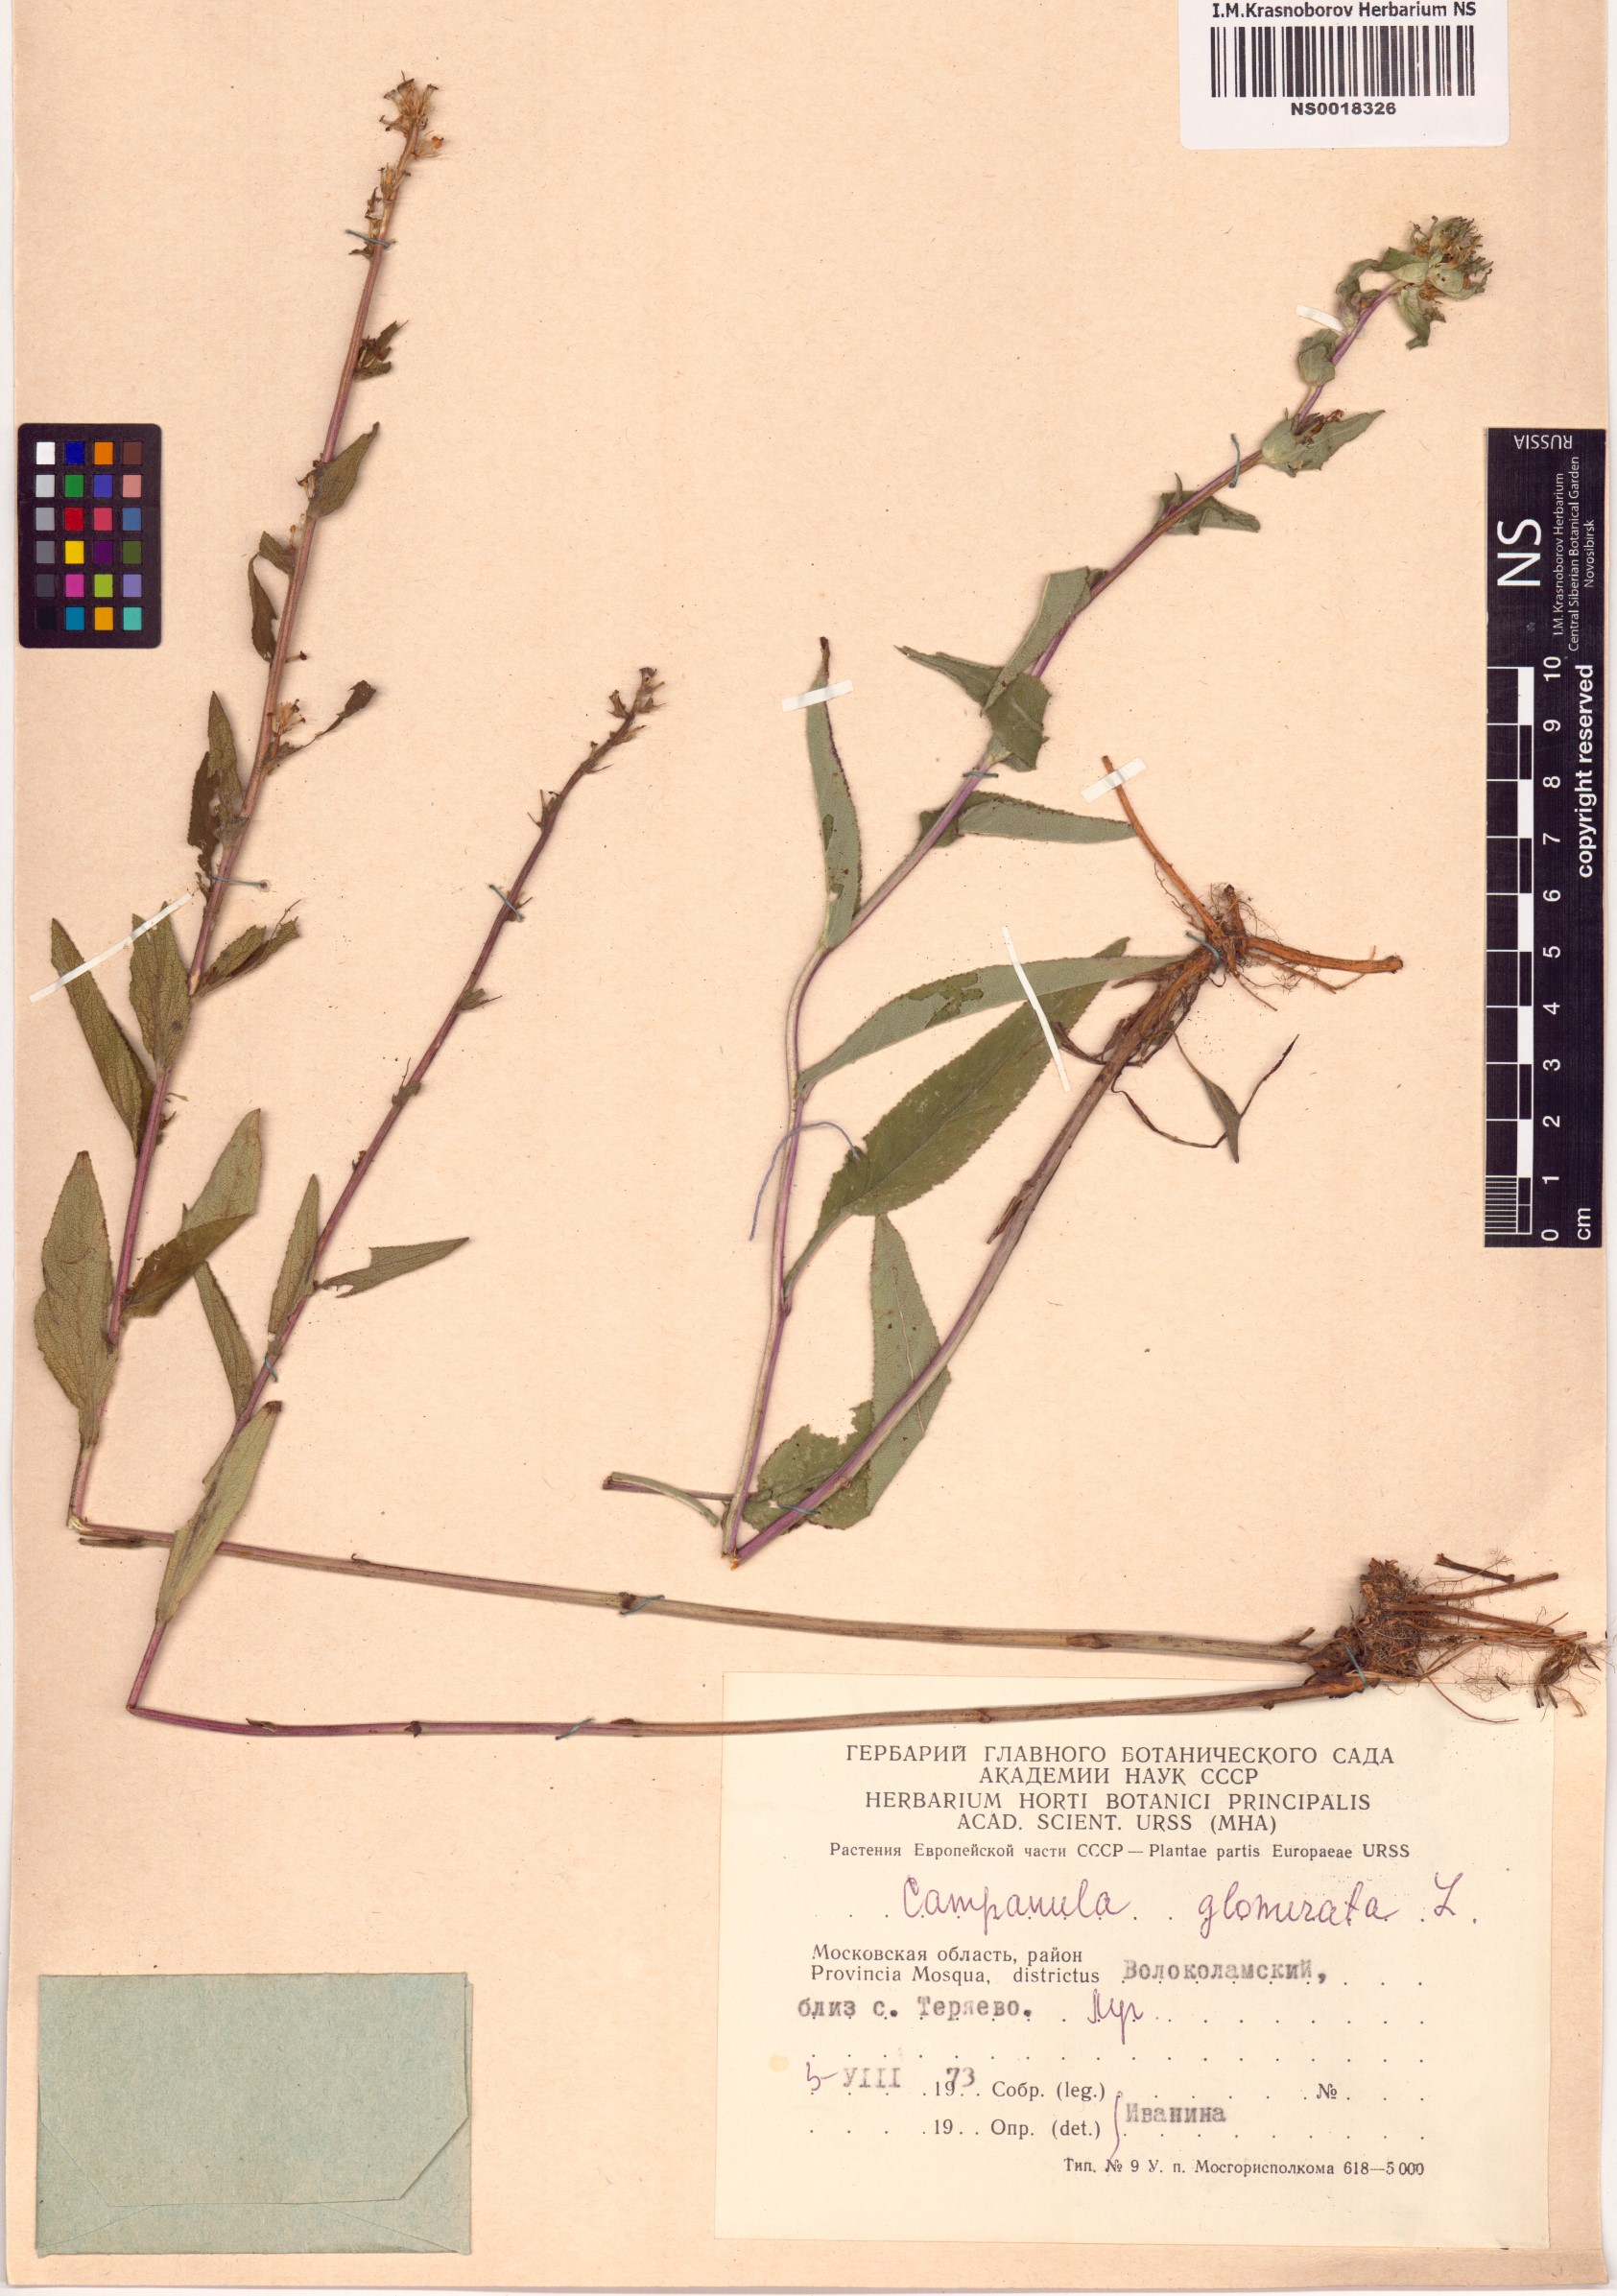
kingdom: Plantae
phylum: Tracheophyta
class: Magnoliopsida
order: Asterales
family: Campanulaceae
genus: Campanula
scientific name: Campanula glomerata
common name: Clustered bellflower
